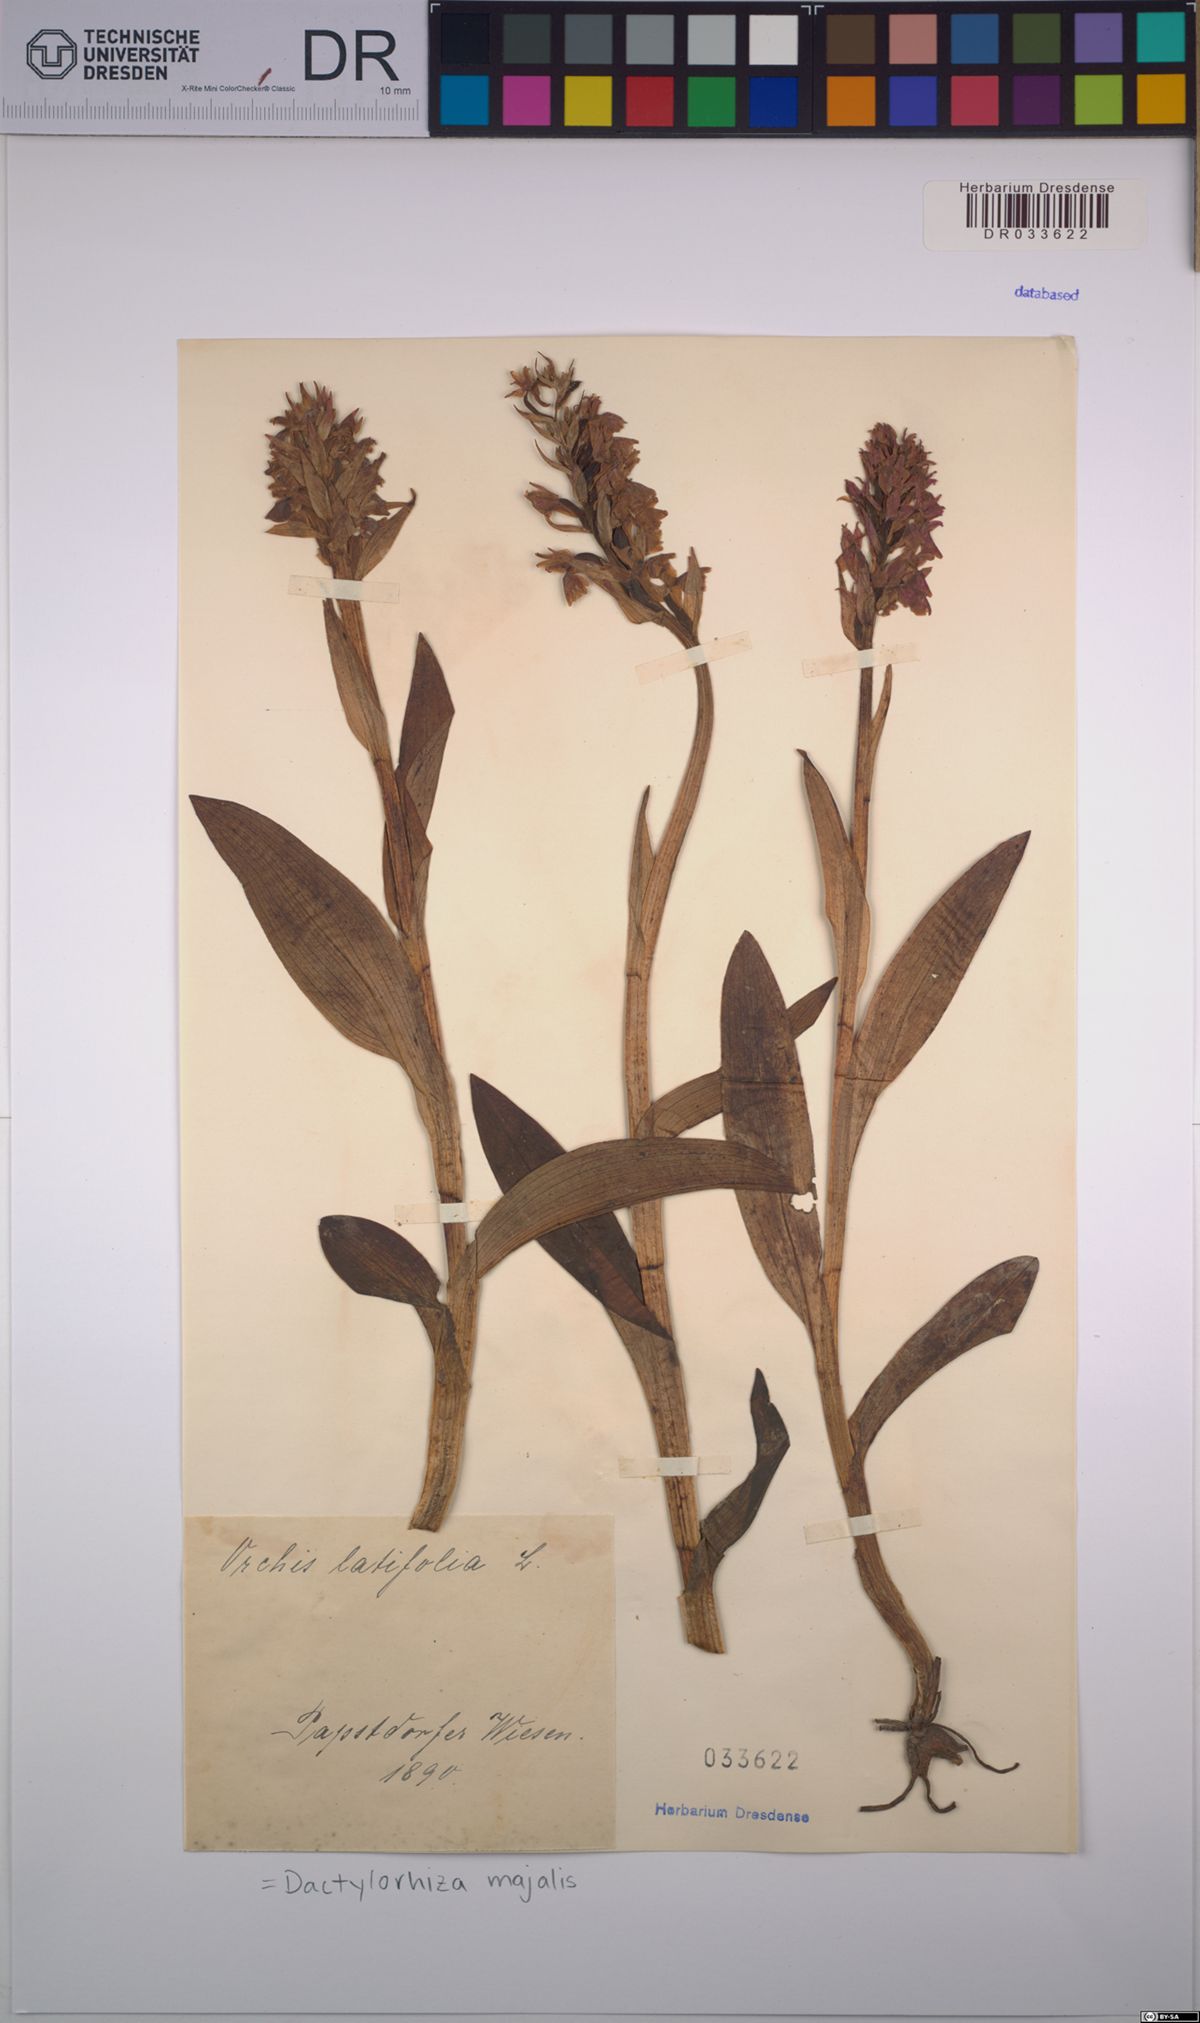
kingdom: Plantae
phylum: Tracheophyta
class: Liliopsida
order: Asparagales
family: Orchidaceae
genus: Dactylorhiza
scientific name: Dactylorhiza majalis
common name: Marsh orchid
